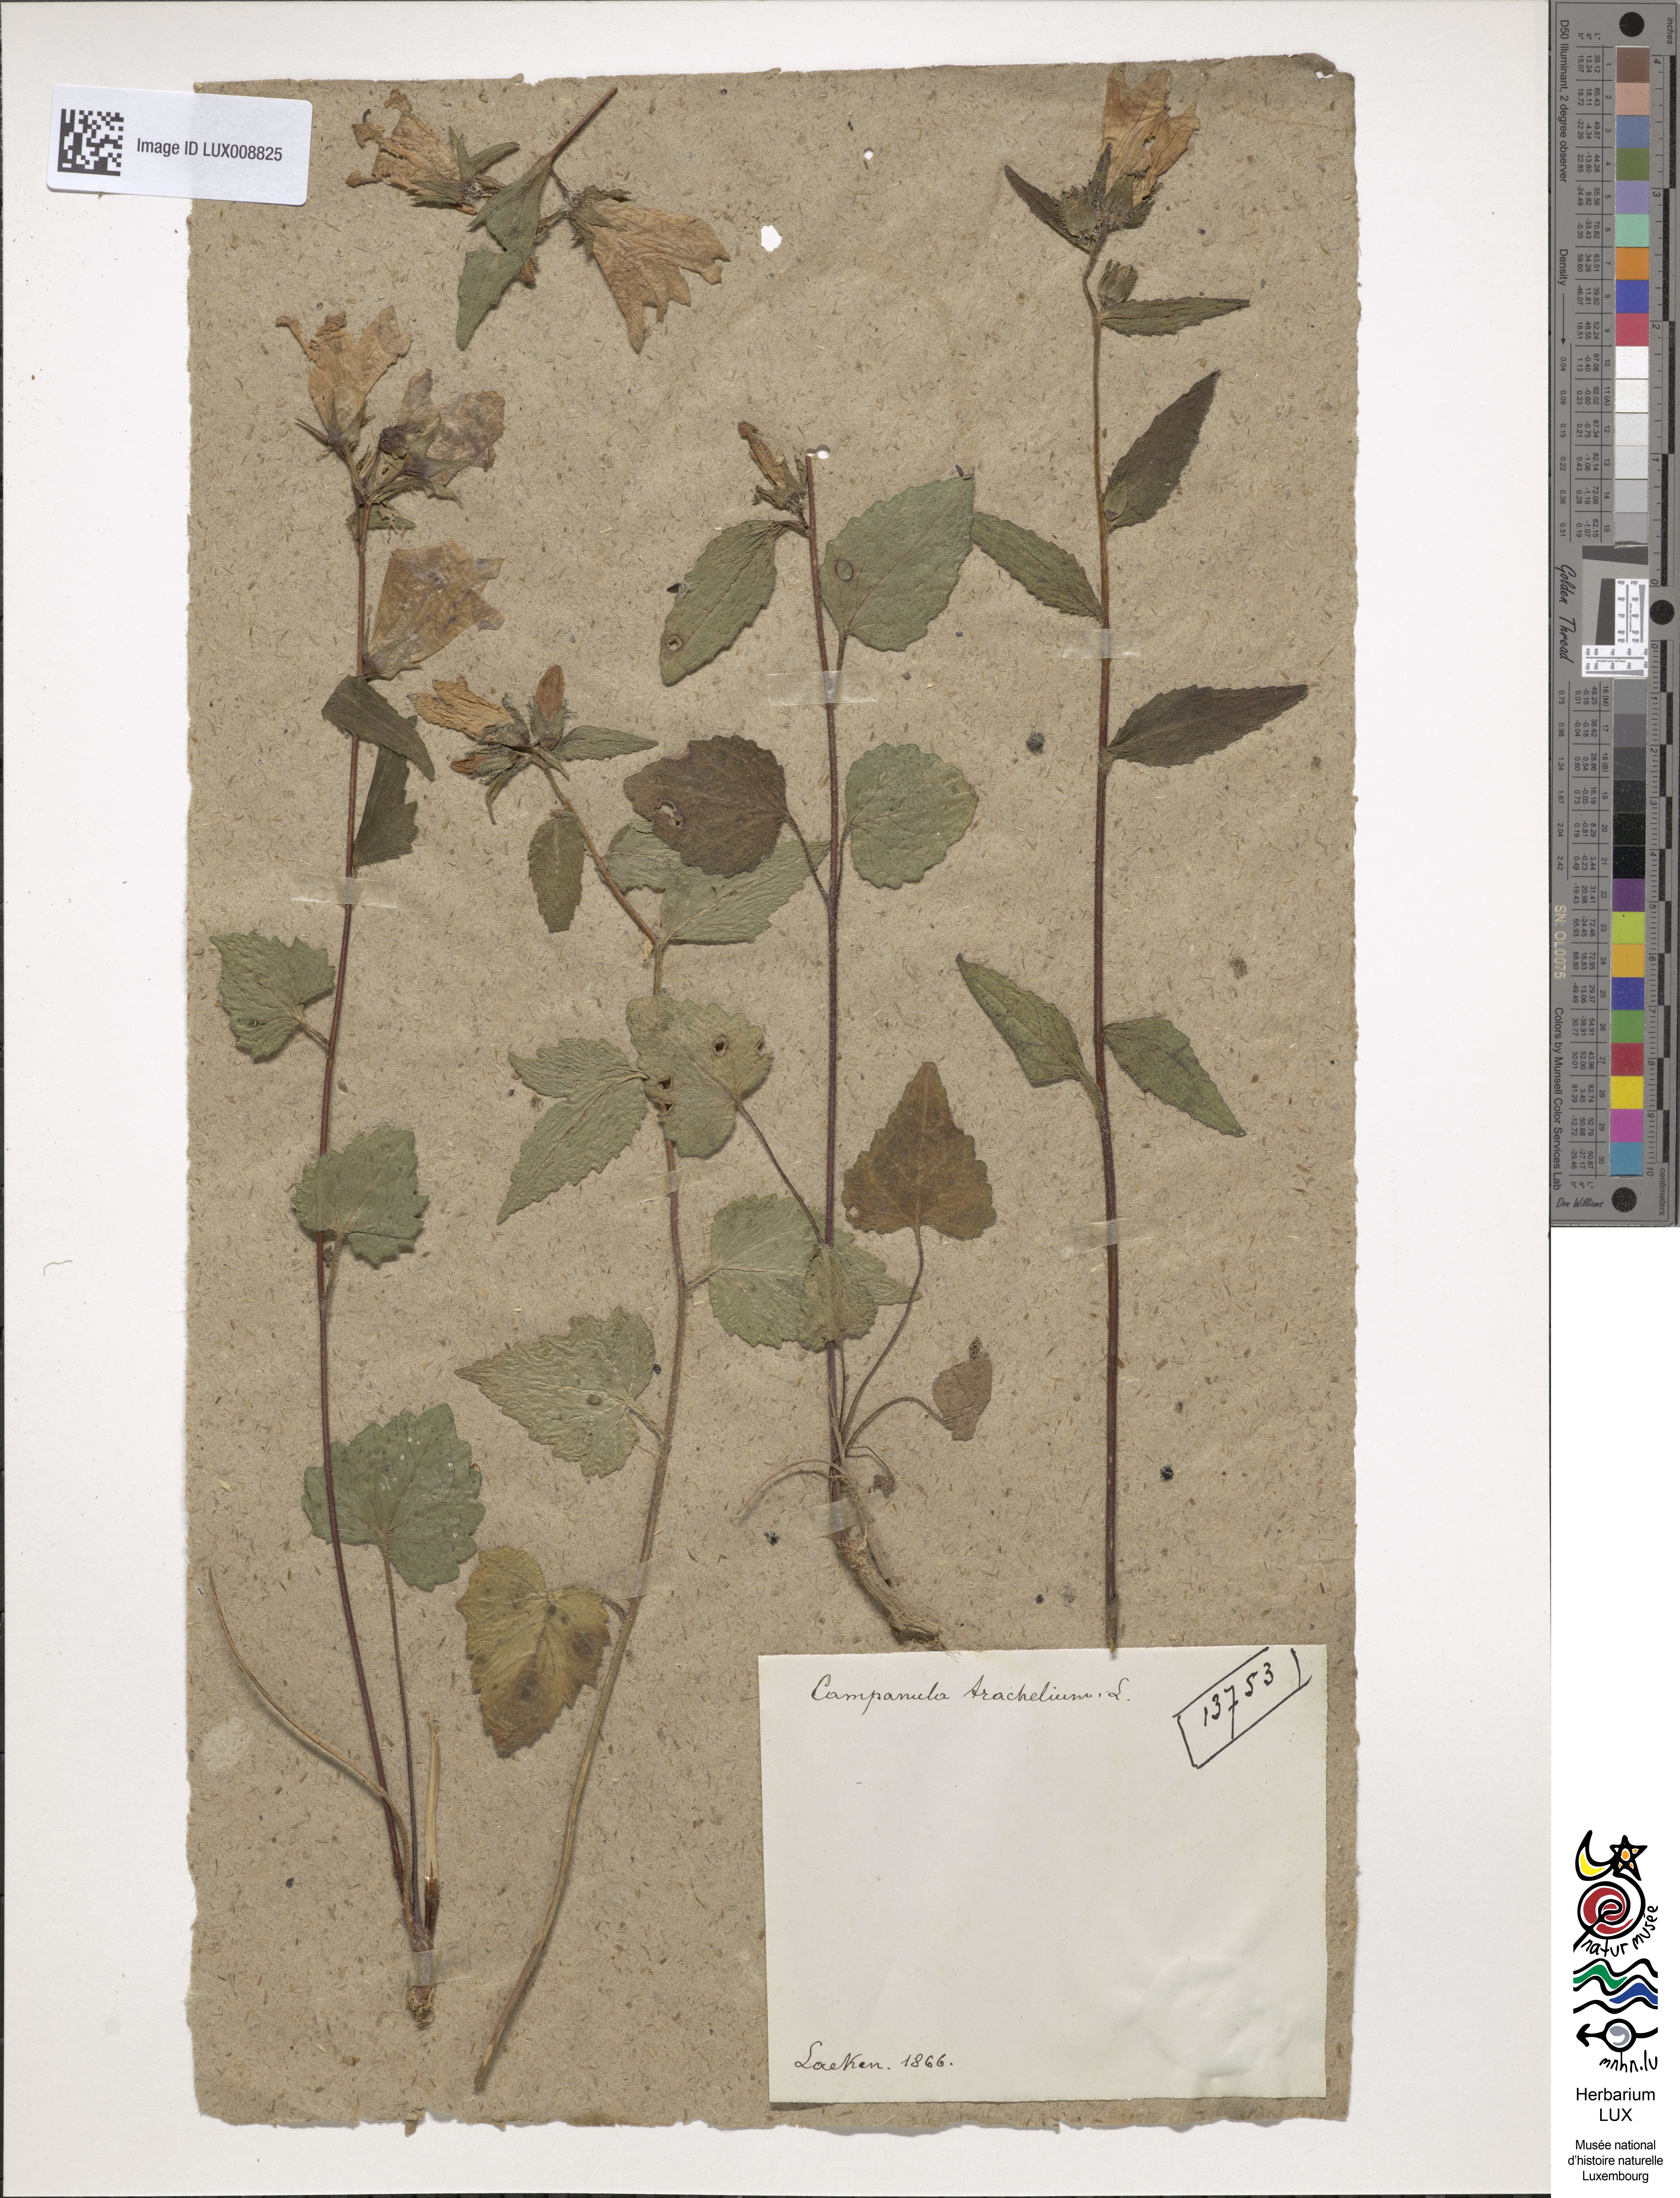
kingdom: Plantae
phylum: Tracheophyta
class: Magnoliopsida
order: Asterales
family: Campanulaceae
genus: Campanula
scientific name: Campanula trachelium
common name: Nettle-leaved bellflower
